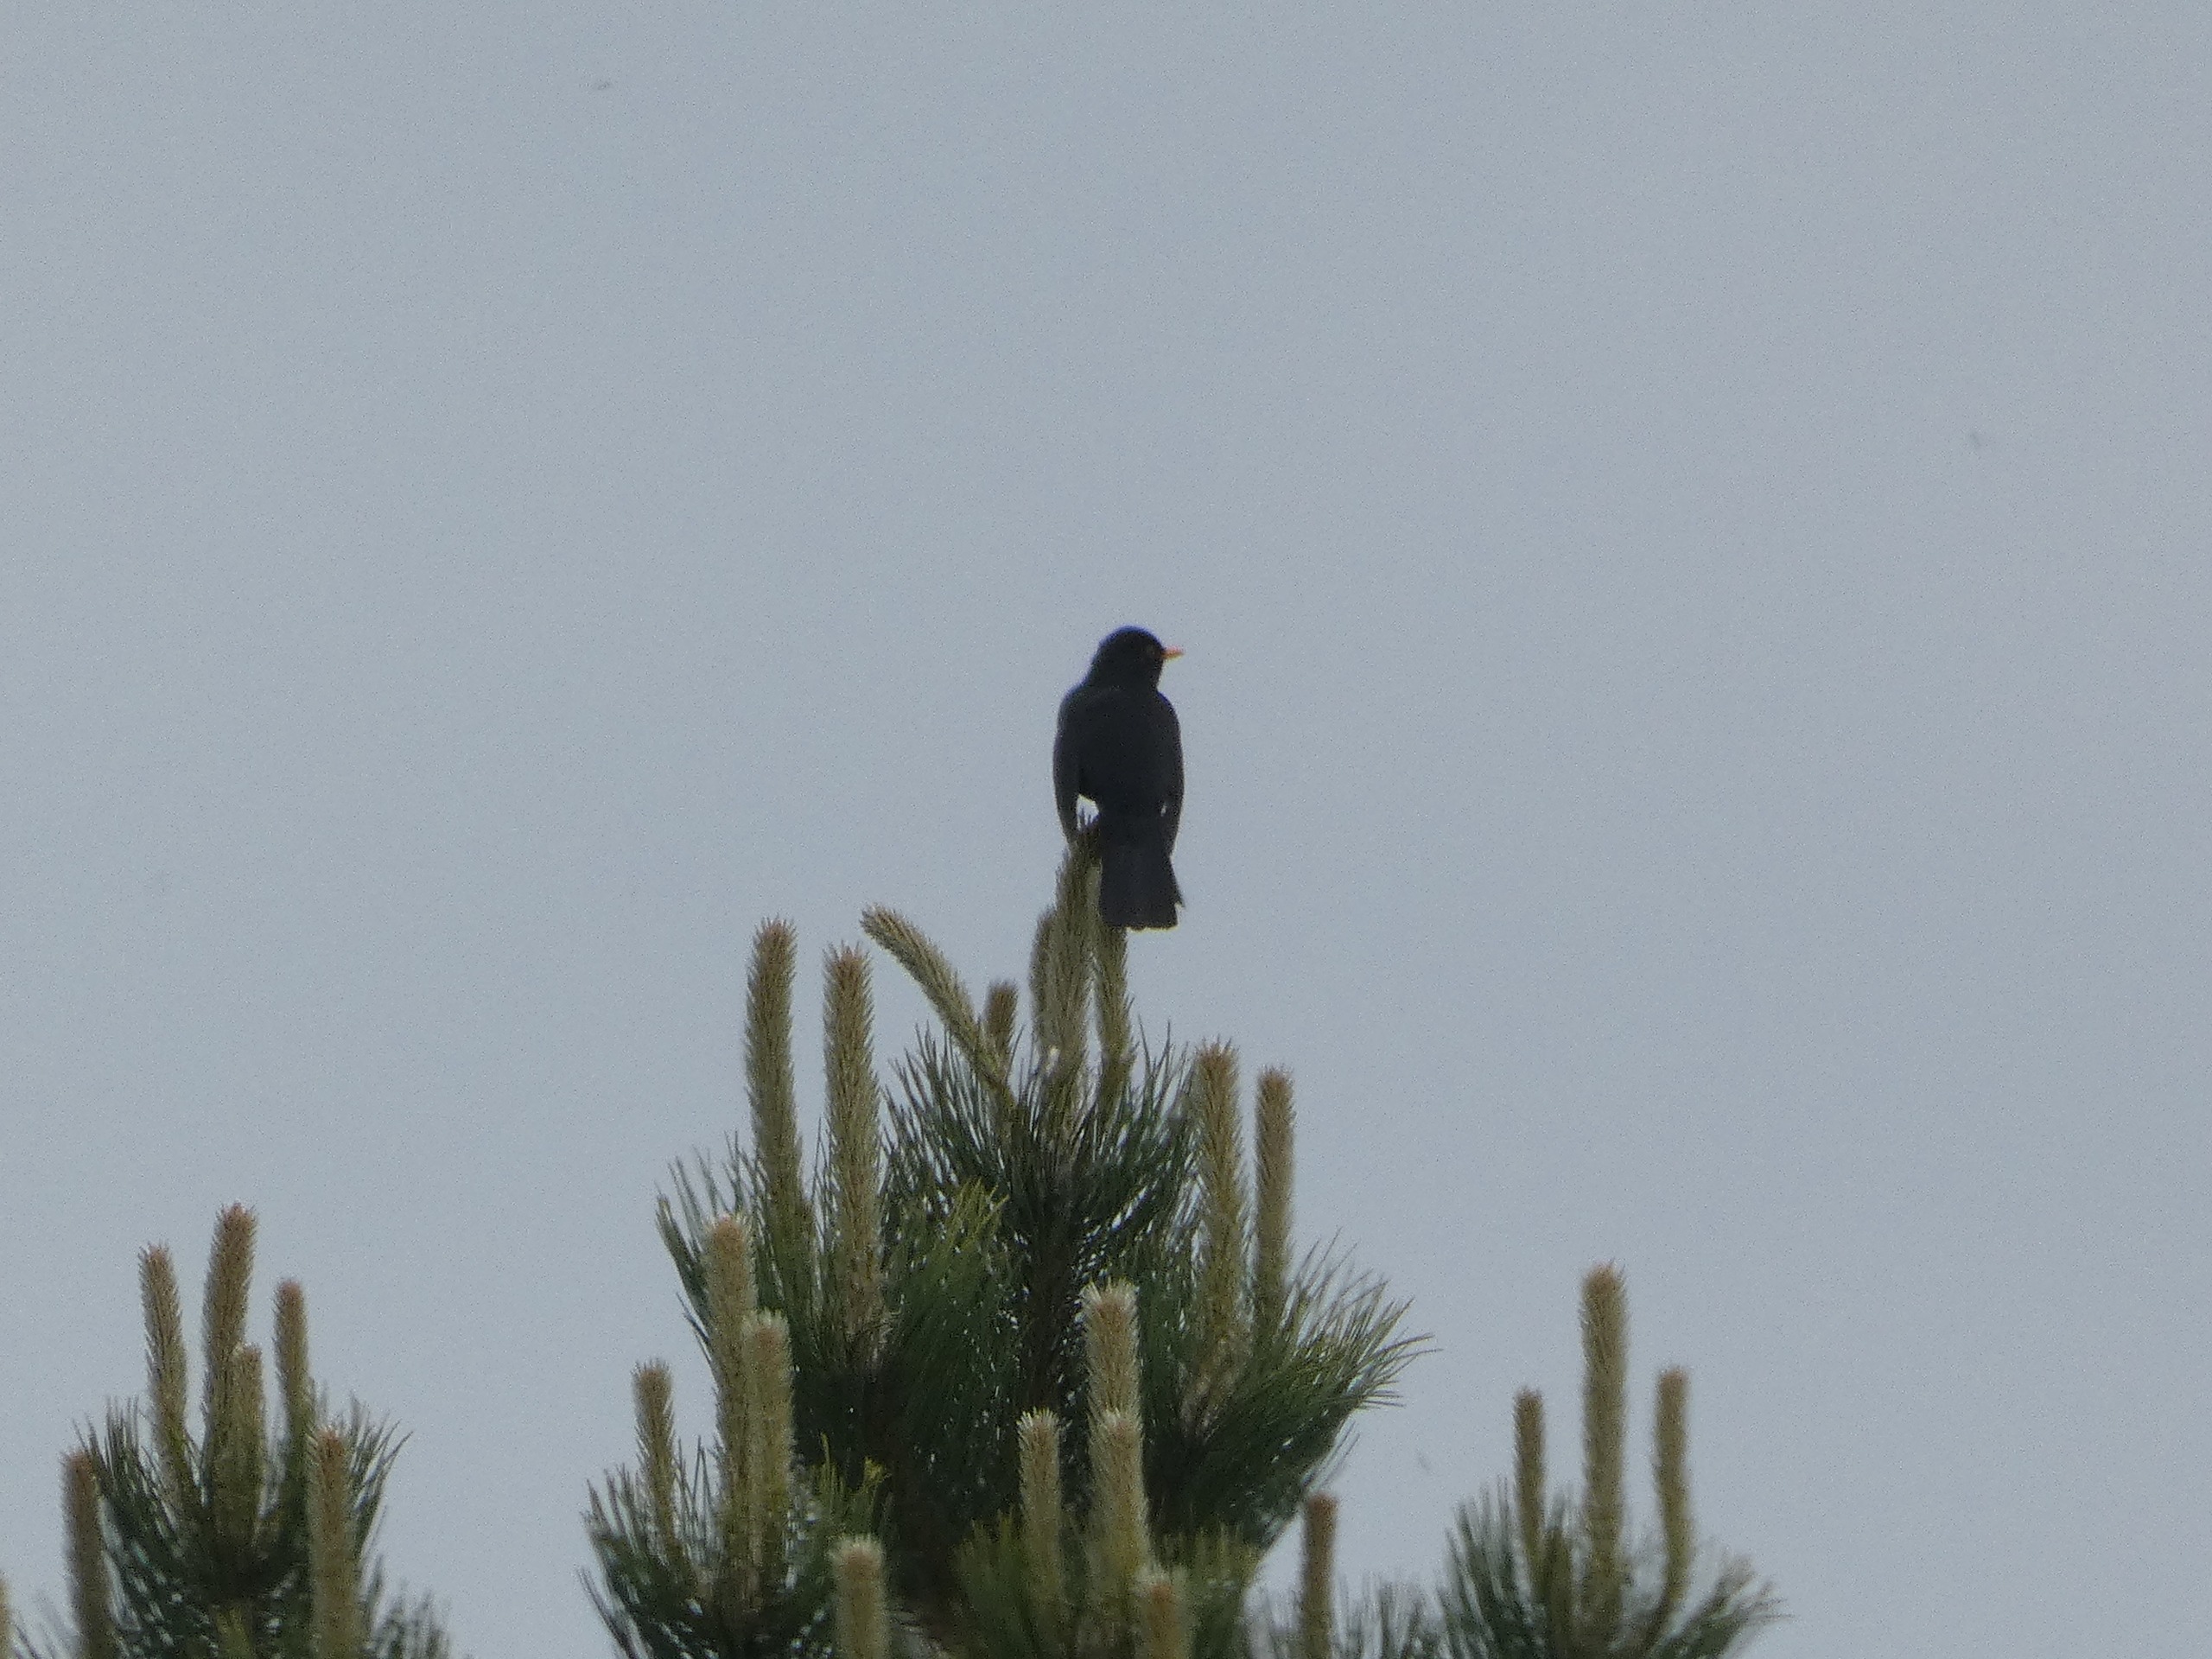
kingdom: Animalia
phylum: Chordata
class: Aves
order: Passeriformes
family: Turdidae
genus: Turdus
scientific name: Turdus merula
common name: Solsort
